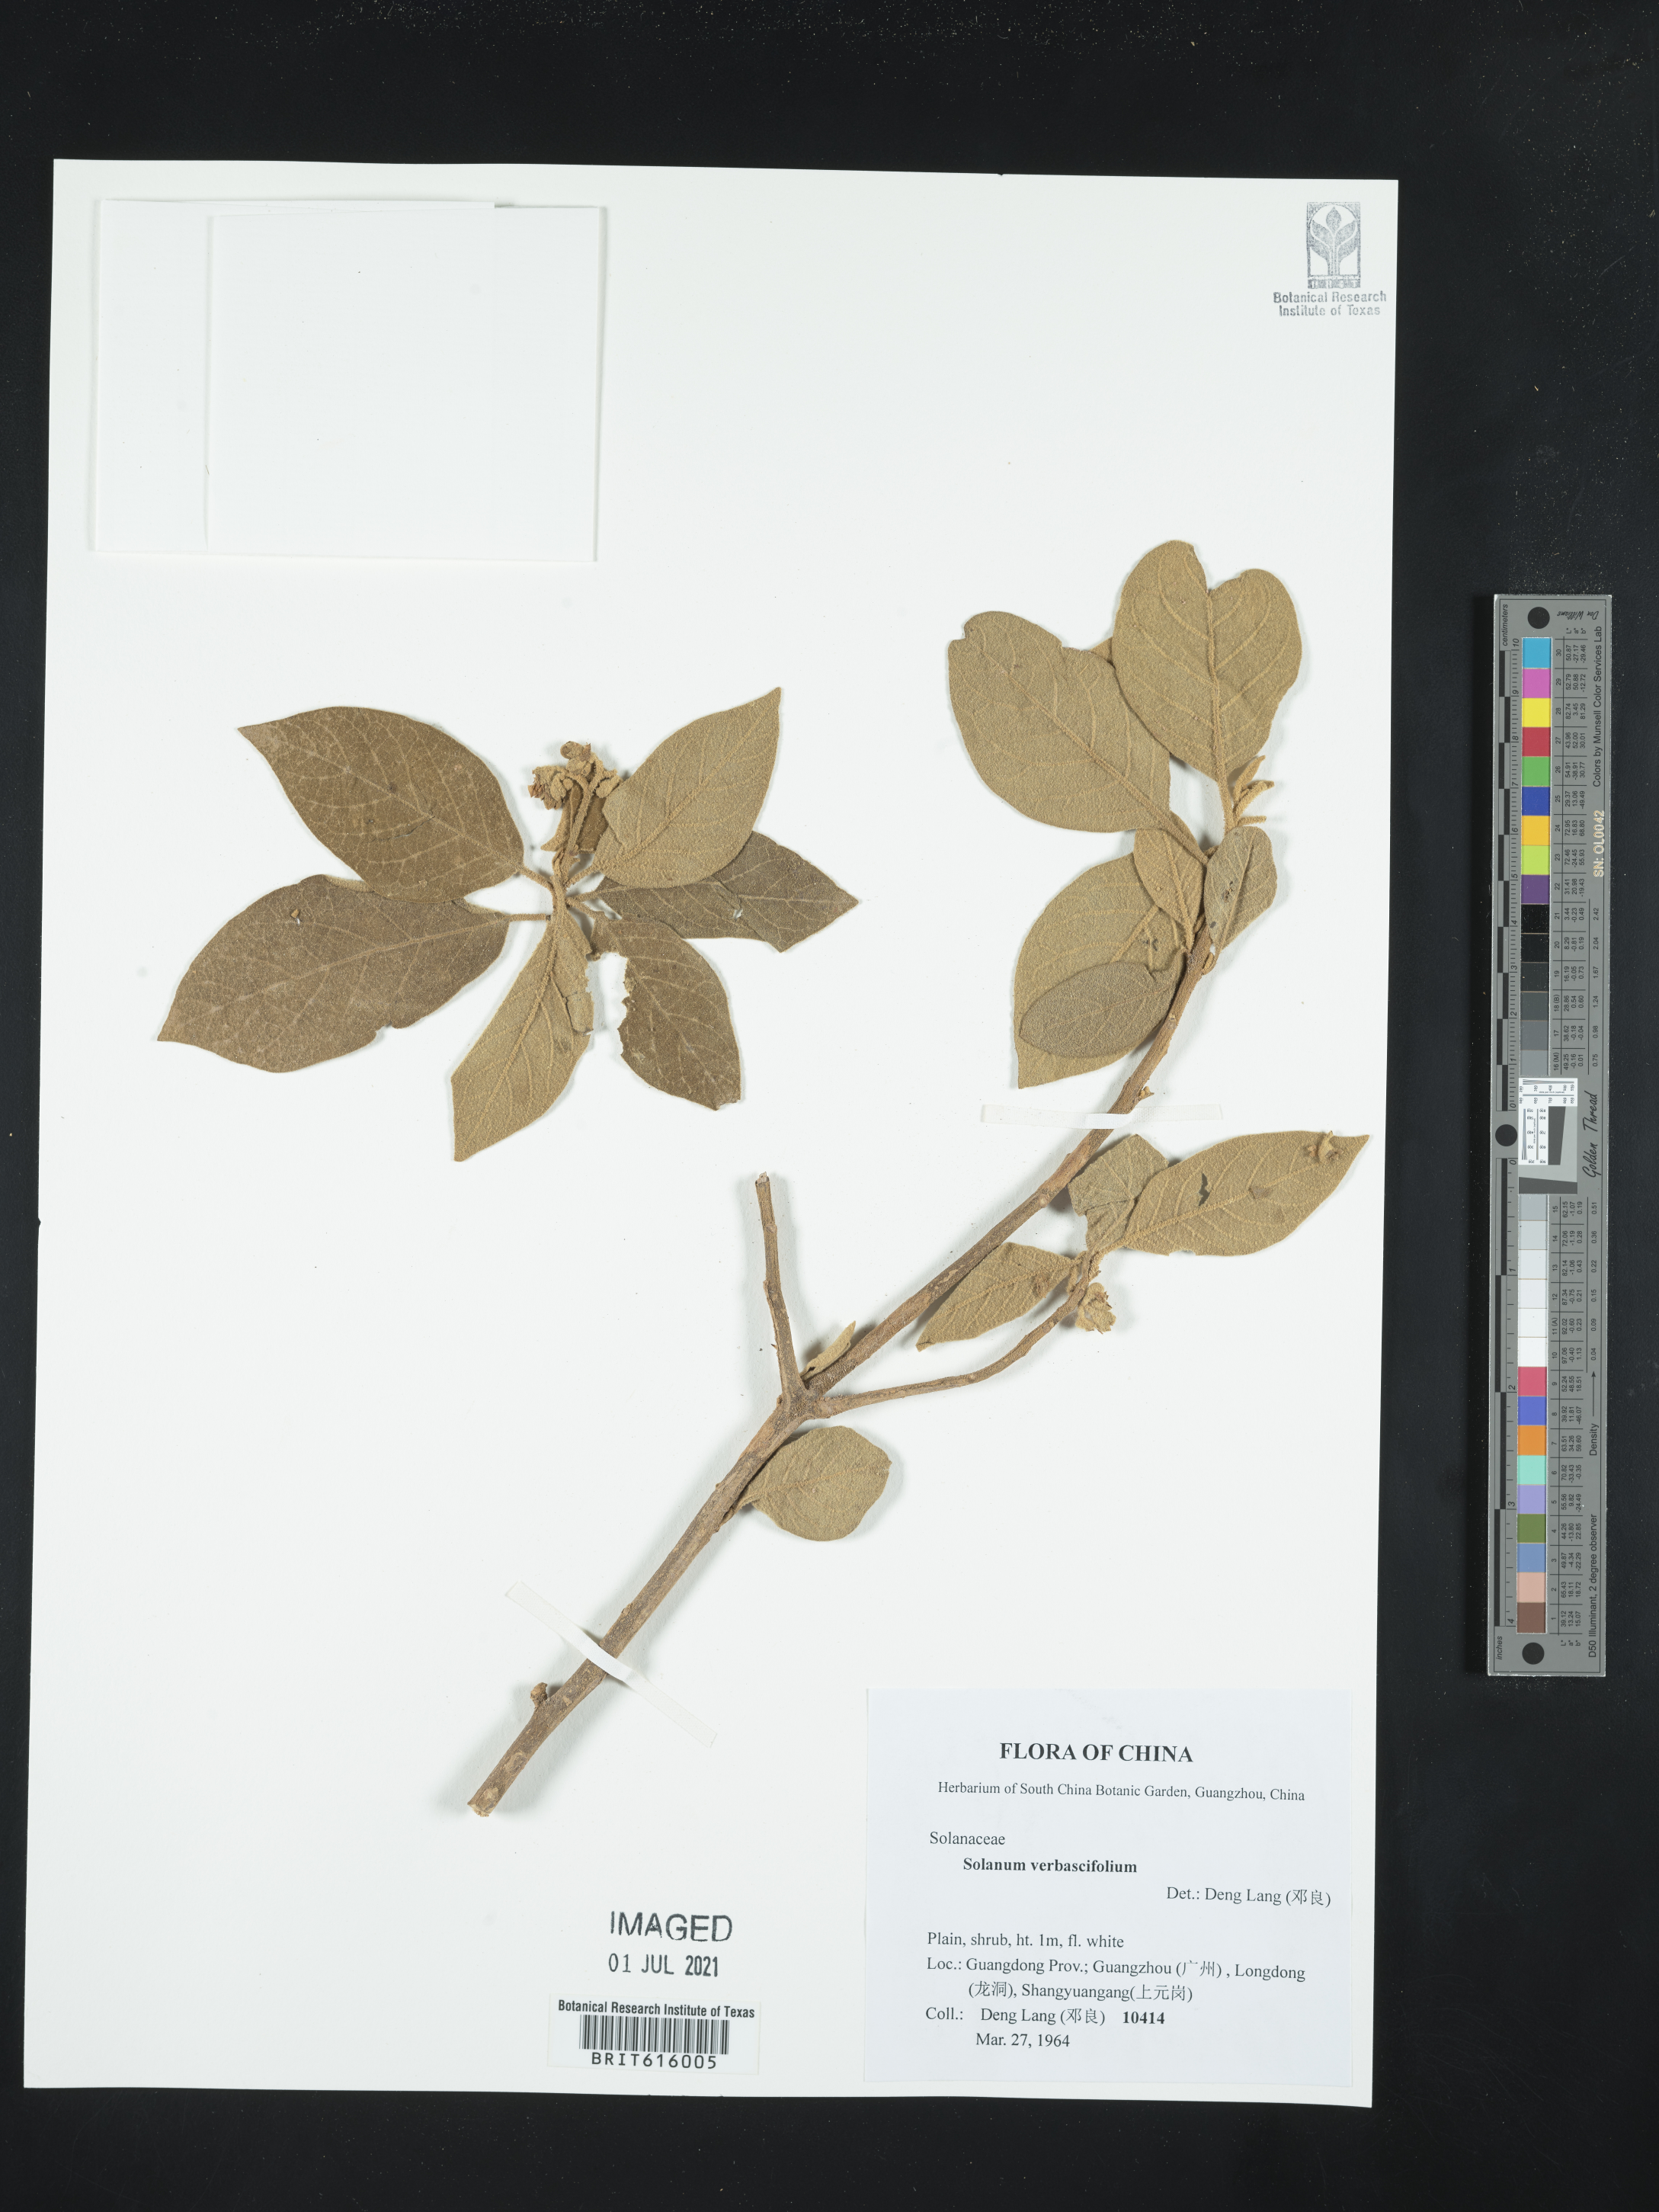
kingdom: Plantae
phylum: Tracheophyta
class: Magnoliopsida
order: Solanales
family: Solanaceae
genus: Solanum
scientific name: Solanum
